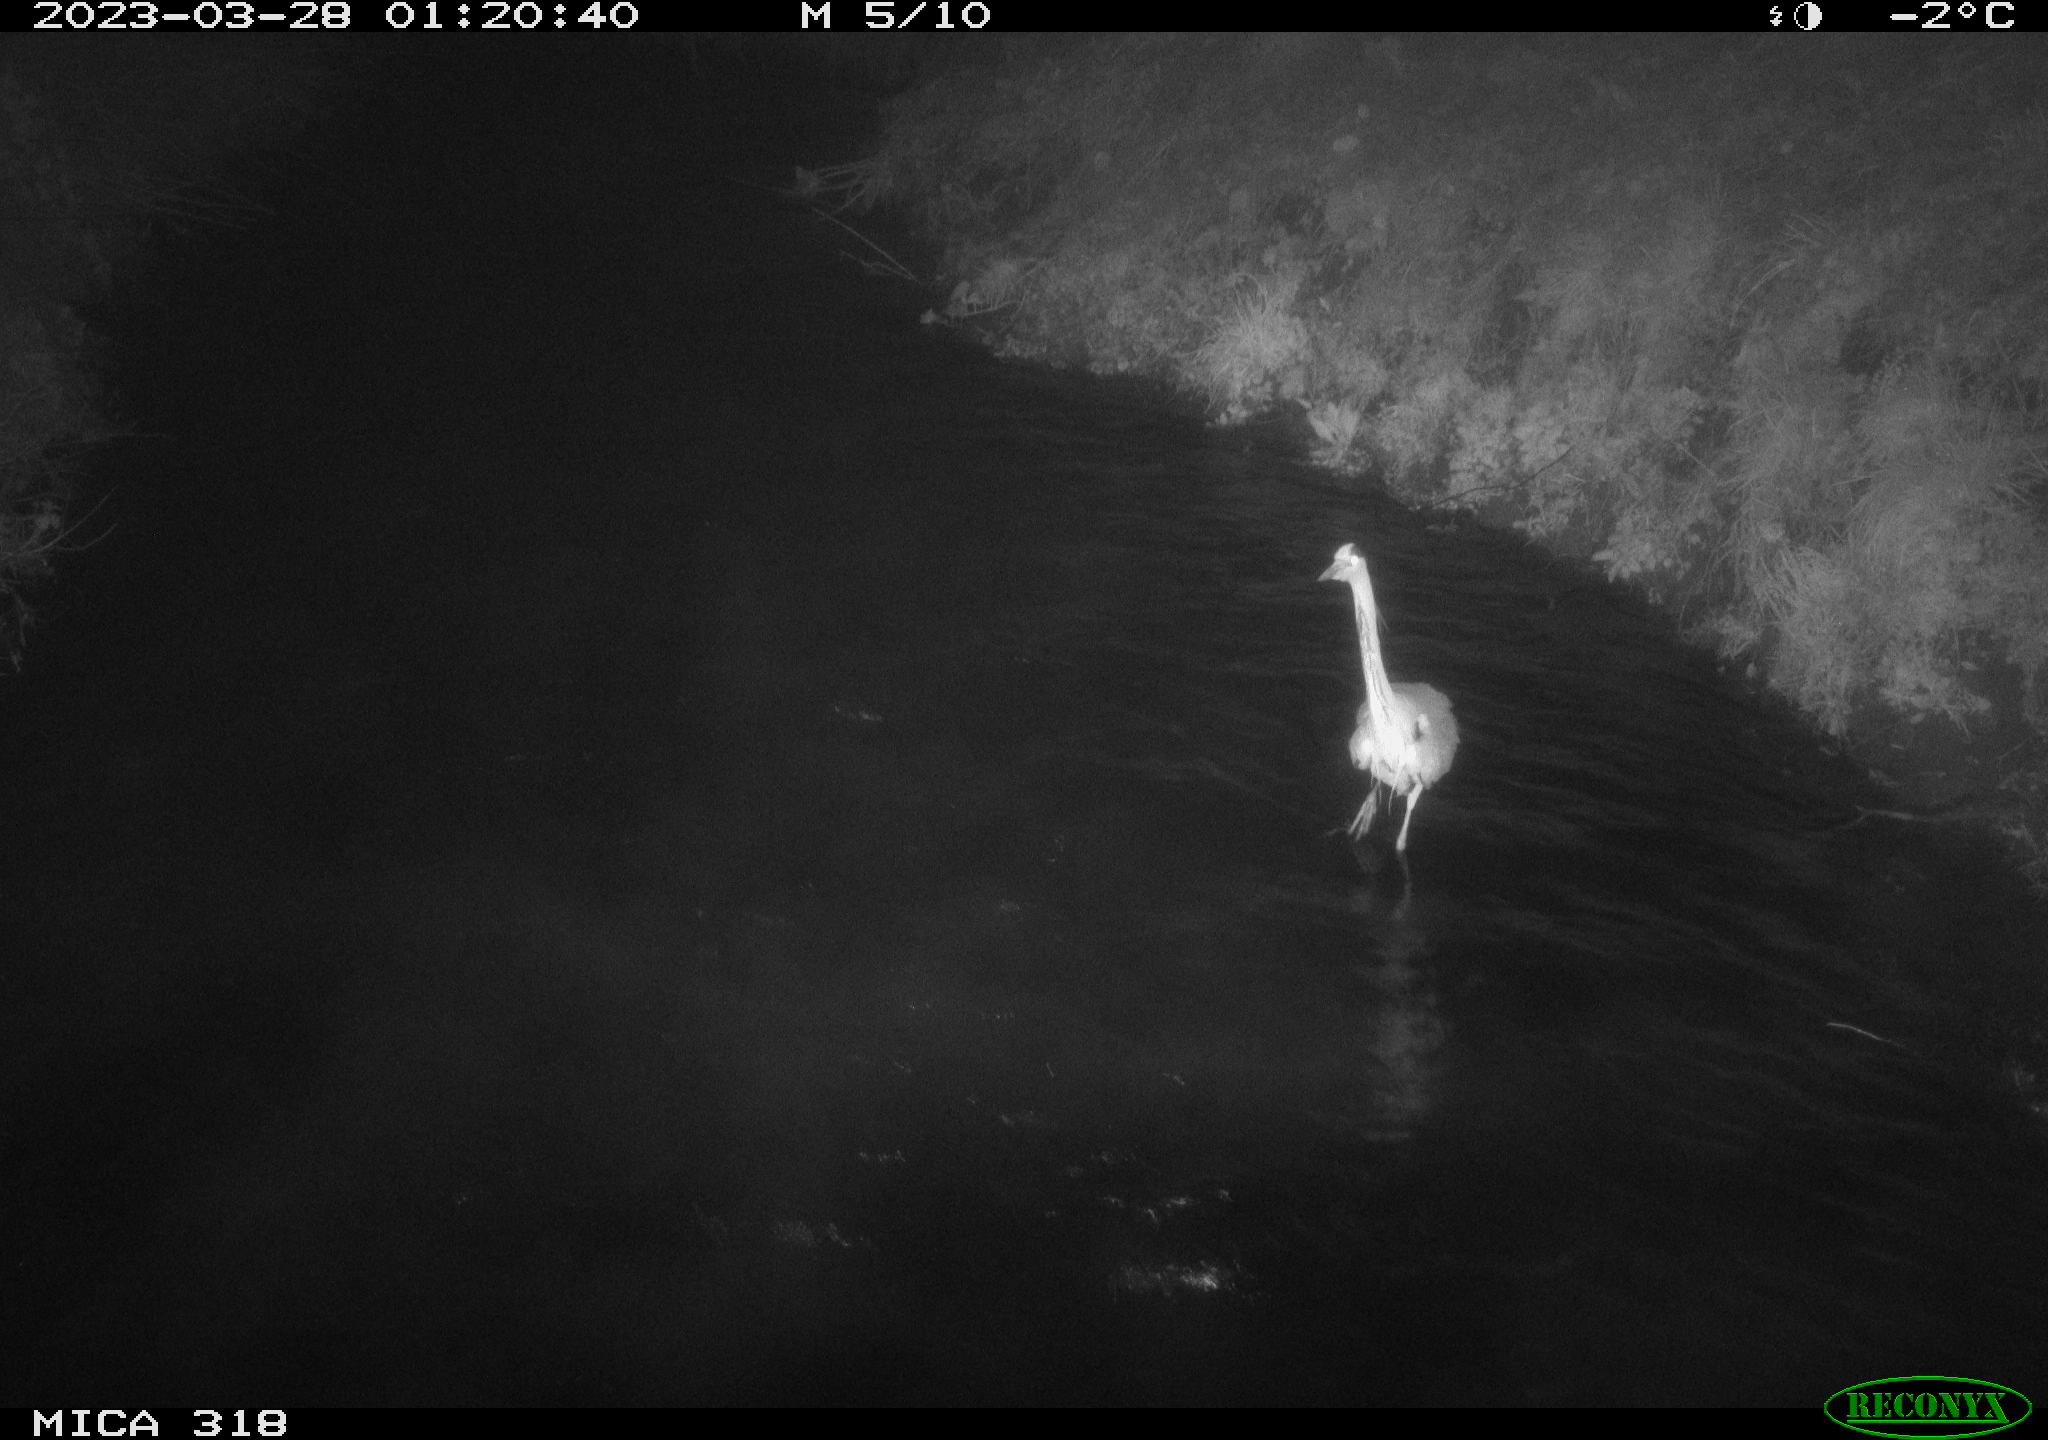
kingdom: Animalia
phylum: Chordata
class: Aves
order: Pelecaniformes
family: Ardeidae
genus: Ardea
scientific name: Ardea
